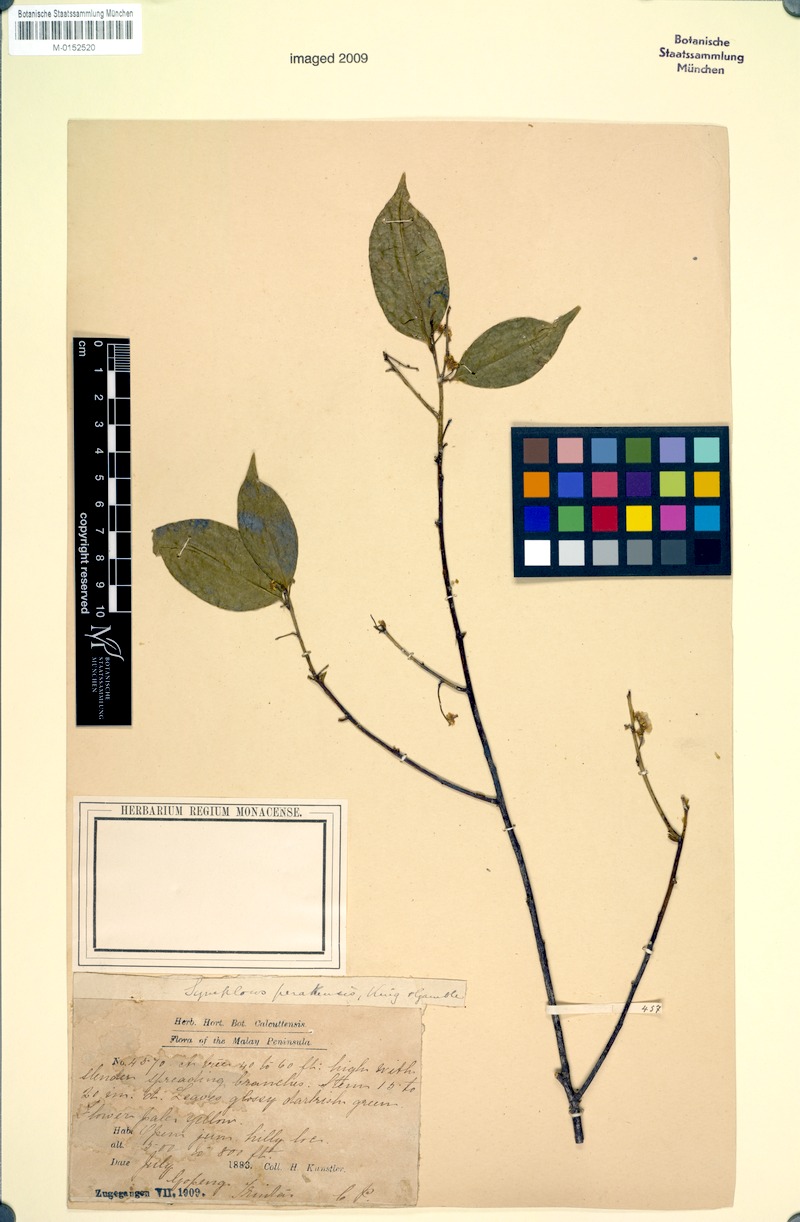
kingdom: Plantae
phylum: Tracheophyta
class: Magnoliopsida
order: Ericales
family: Symplocaceae
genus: Symplocos
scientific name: Symplocos ophirensis
